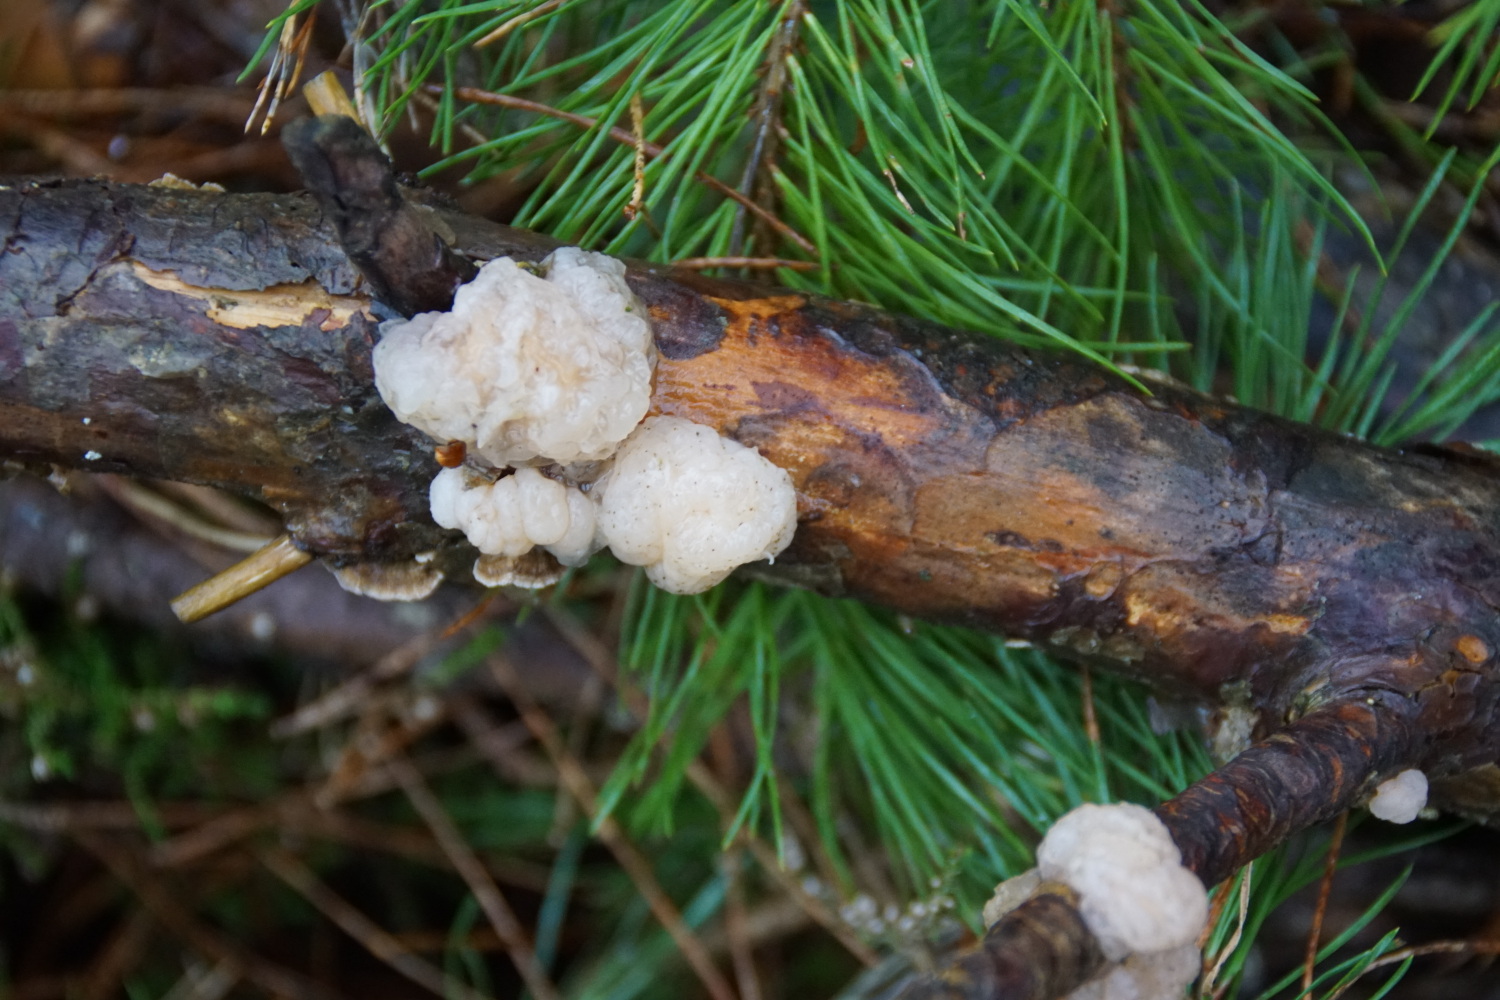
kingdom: Fungi
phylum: Basidiomycota
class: Tremellomycetes
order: Tremellales
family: Naemateliaceae
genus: Naematelia
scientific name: Naematelia encephala
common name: fyrre-bævresvamp
